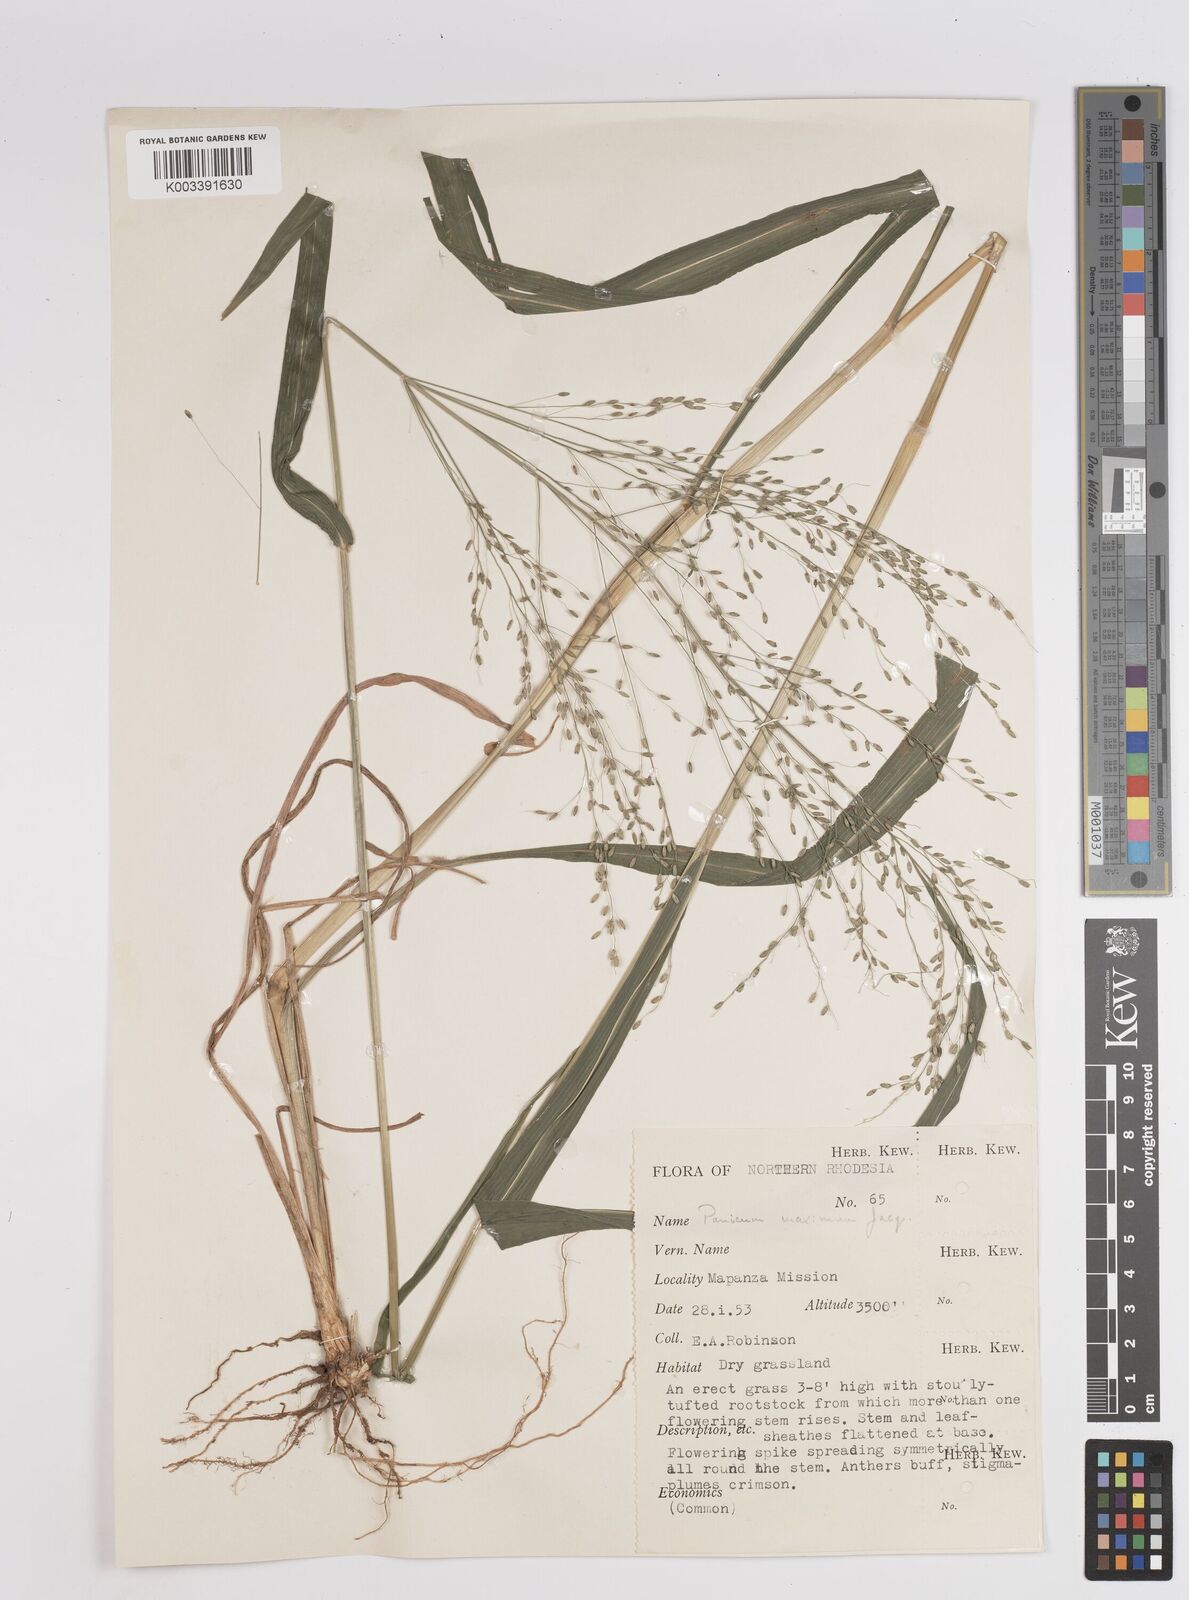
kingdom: Plantae
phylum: Tracheophyta
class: Liliopsida
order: Poales
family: Poaceae
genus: Megathyrsus
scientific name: Megathyrsus maximus
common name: Guineagrass
